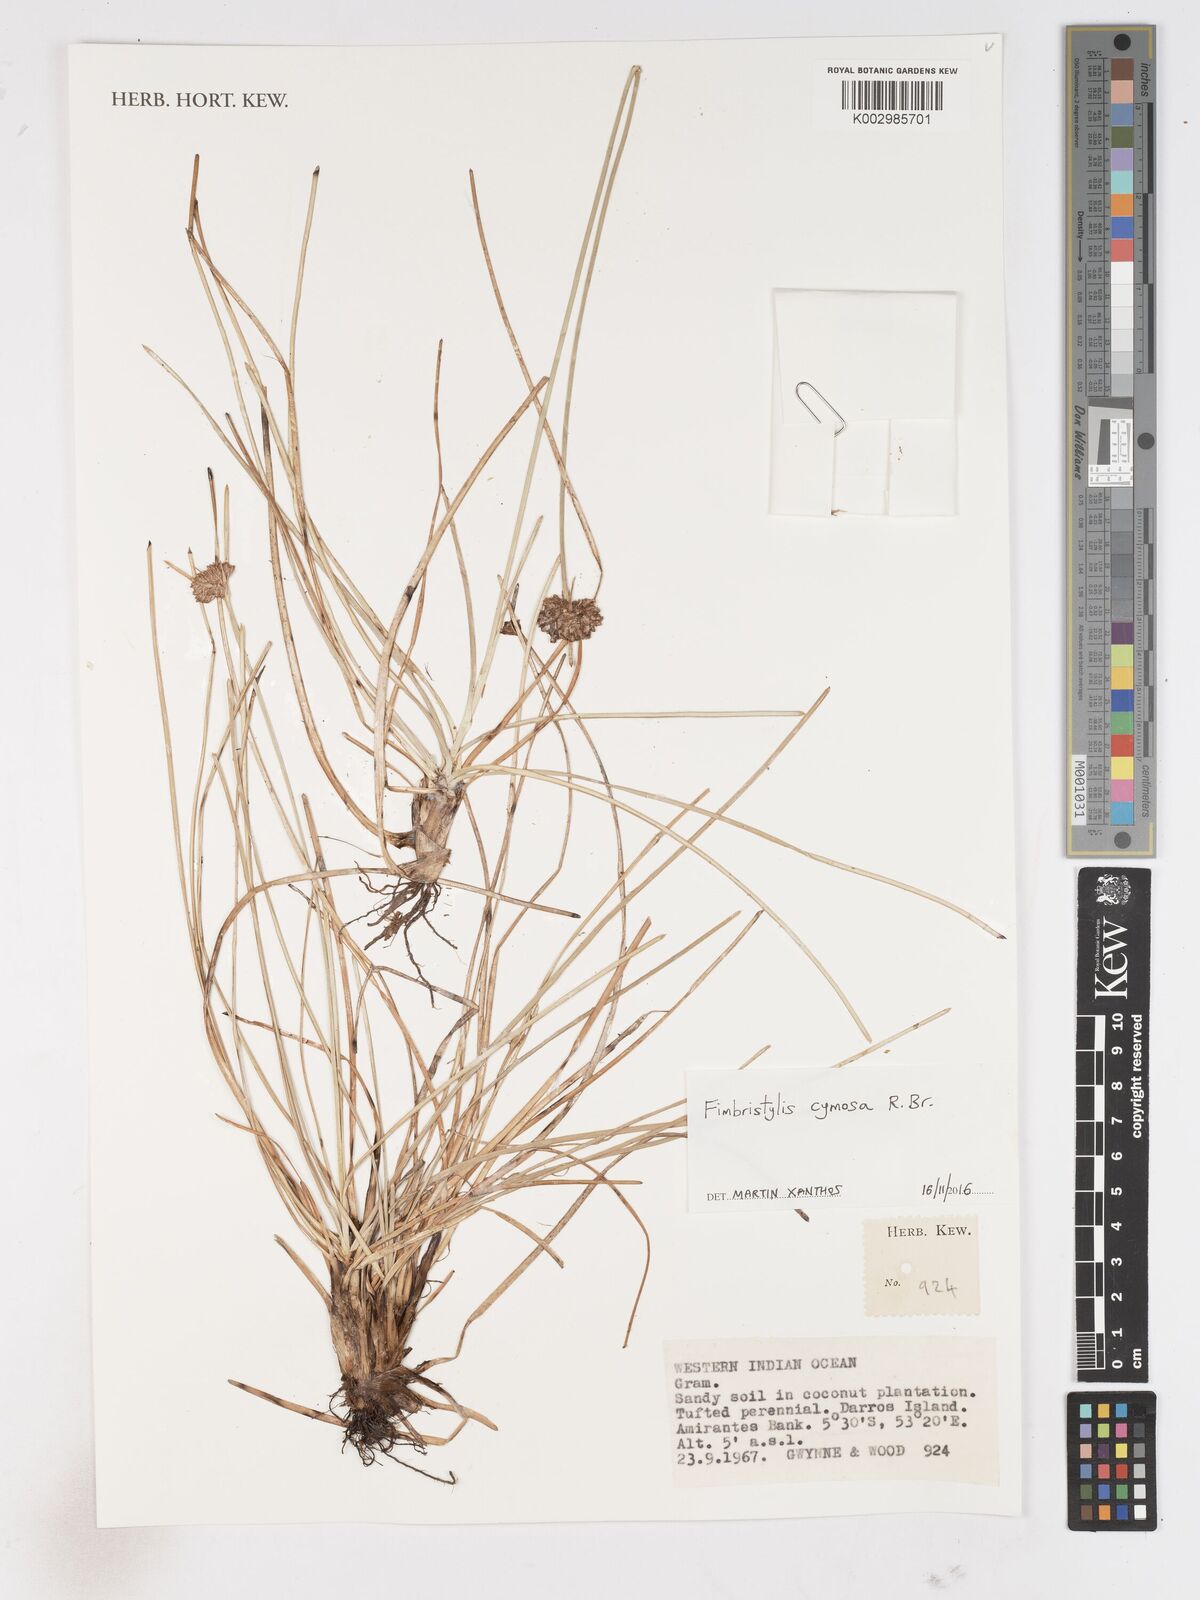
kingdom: Plantae
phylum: Tracheophyta
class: Liliopsida
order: Poales
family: Cyperaceae
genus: Fimbristylis
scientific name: Fimbristylis cymosa
